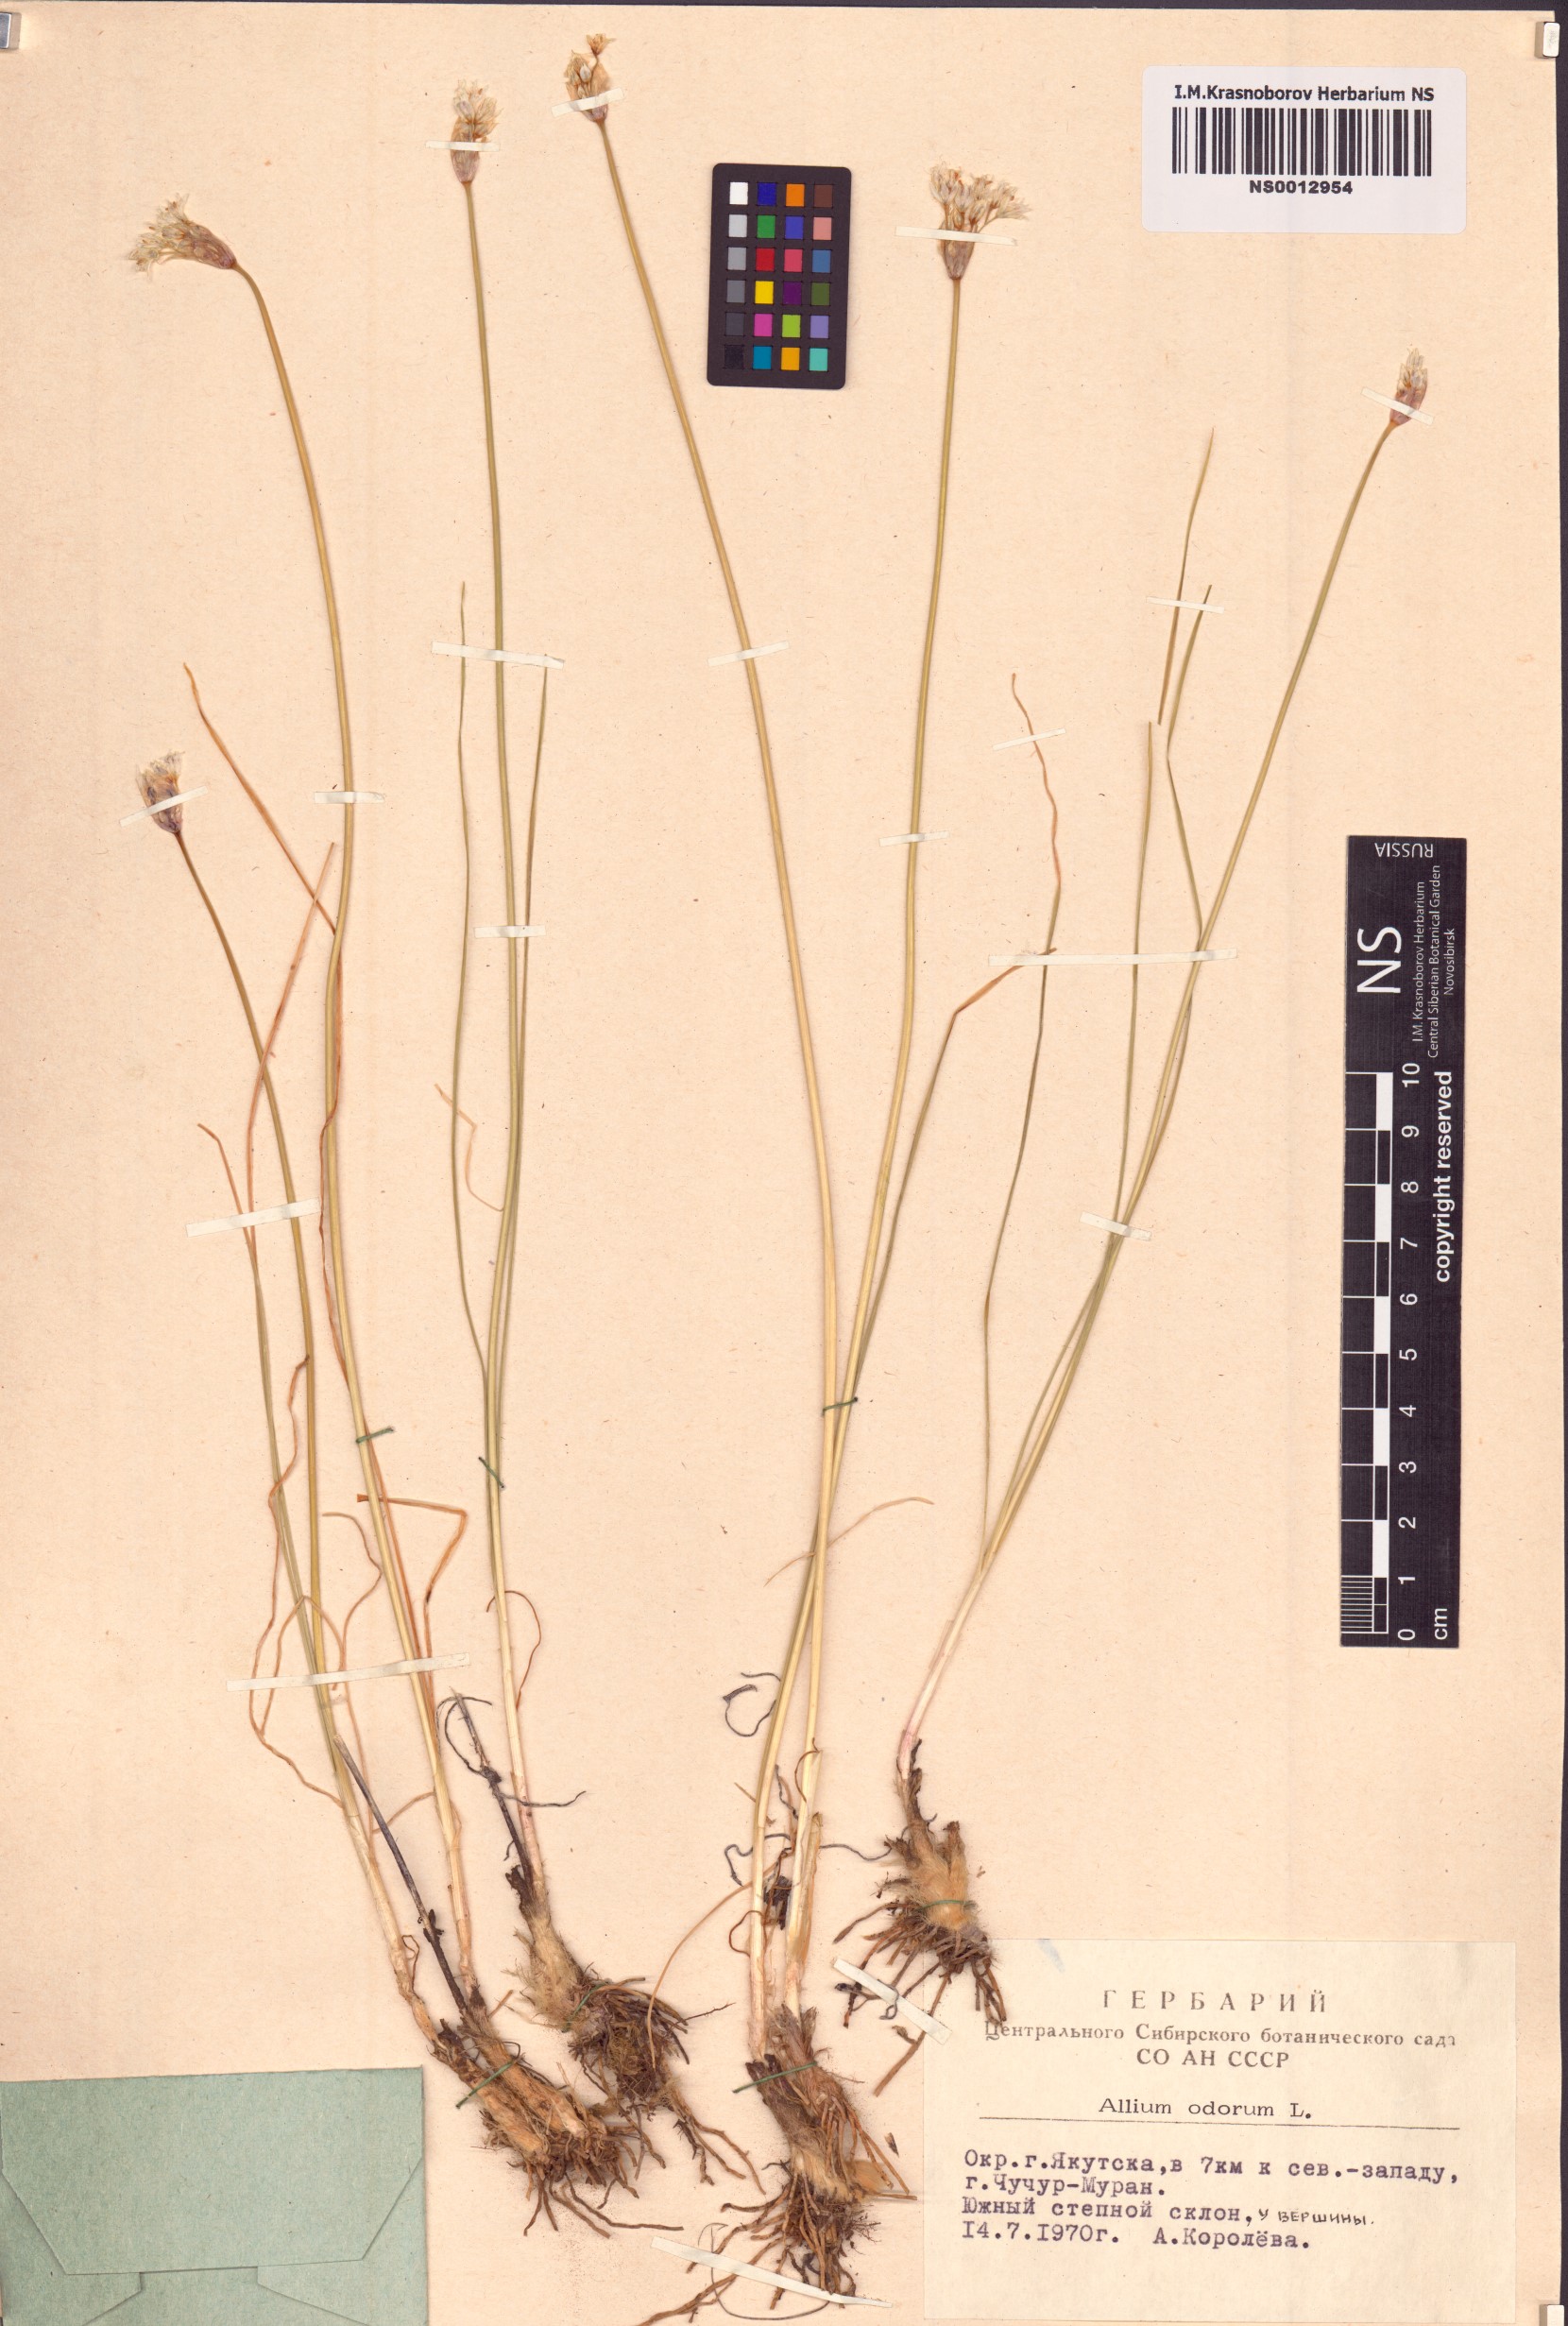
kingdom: Plantae
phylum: Tracheophyta
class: Liliopsida
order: Asparagales
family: Amaryllidaceae
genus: Allium
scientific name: Allium ramosum
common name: Fragrant garlic
